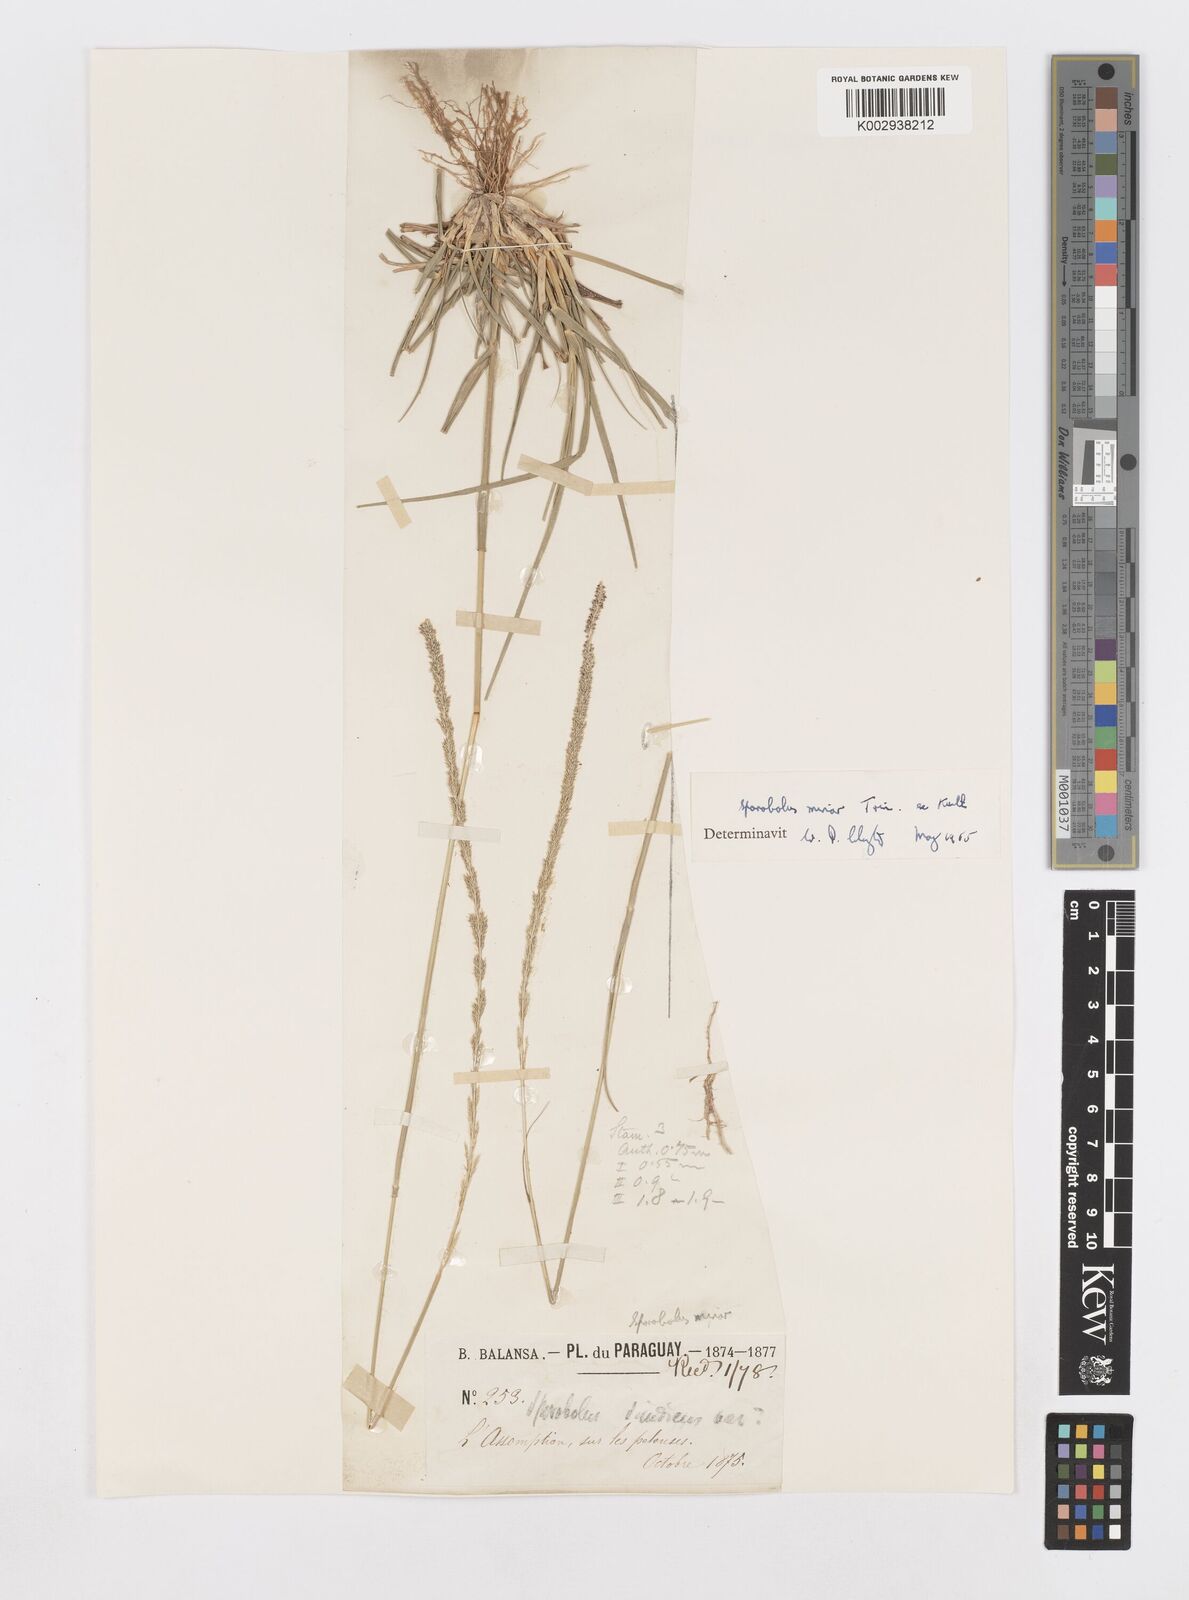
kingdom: Plantae
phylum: Tracheophyta
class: Liliopsida
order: Poales
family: Poaceae
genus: Sporobolus
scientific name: Sporobolus indicus
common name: Smut grass
